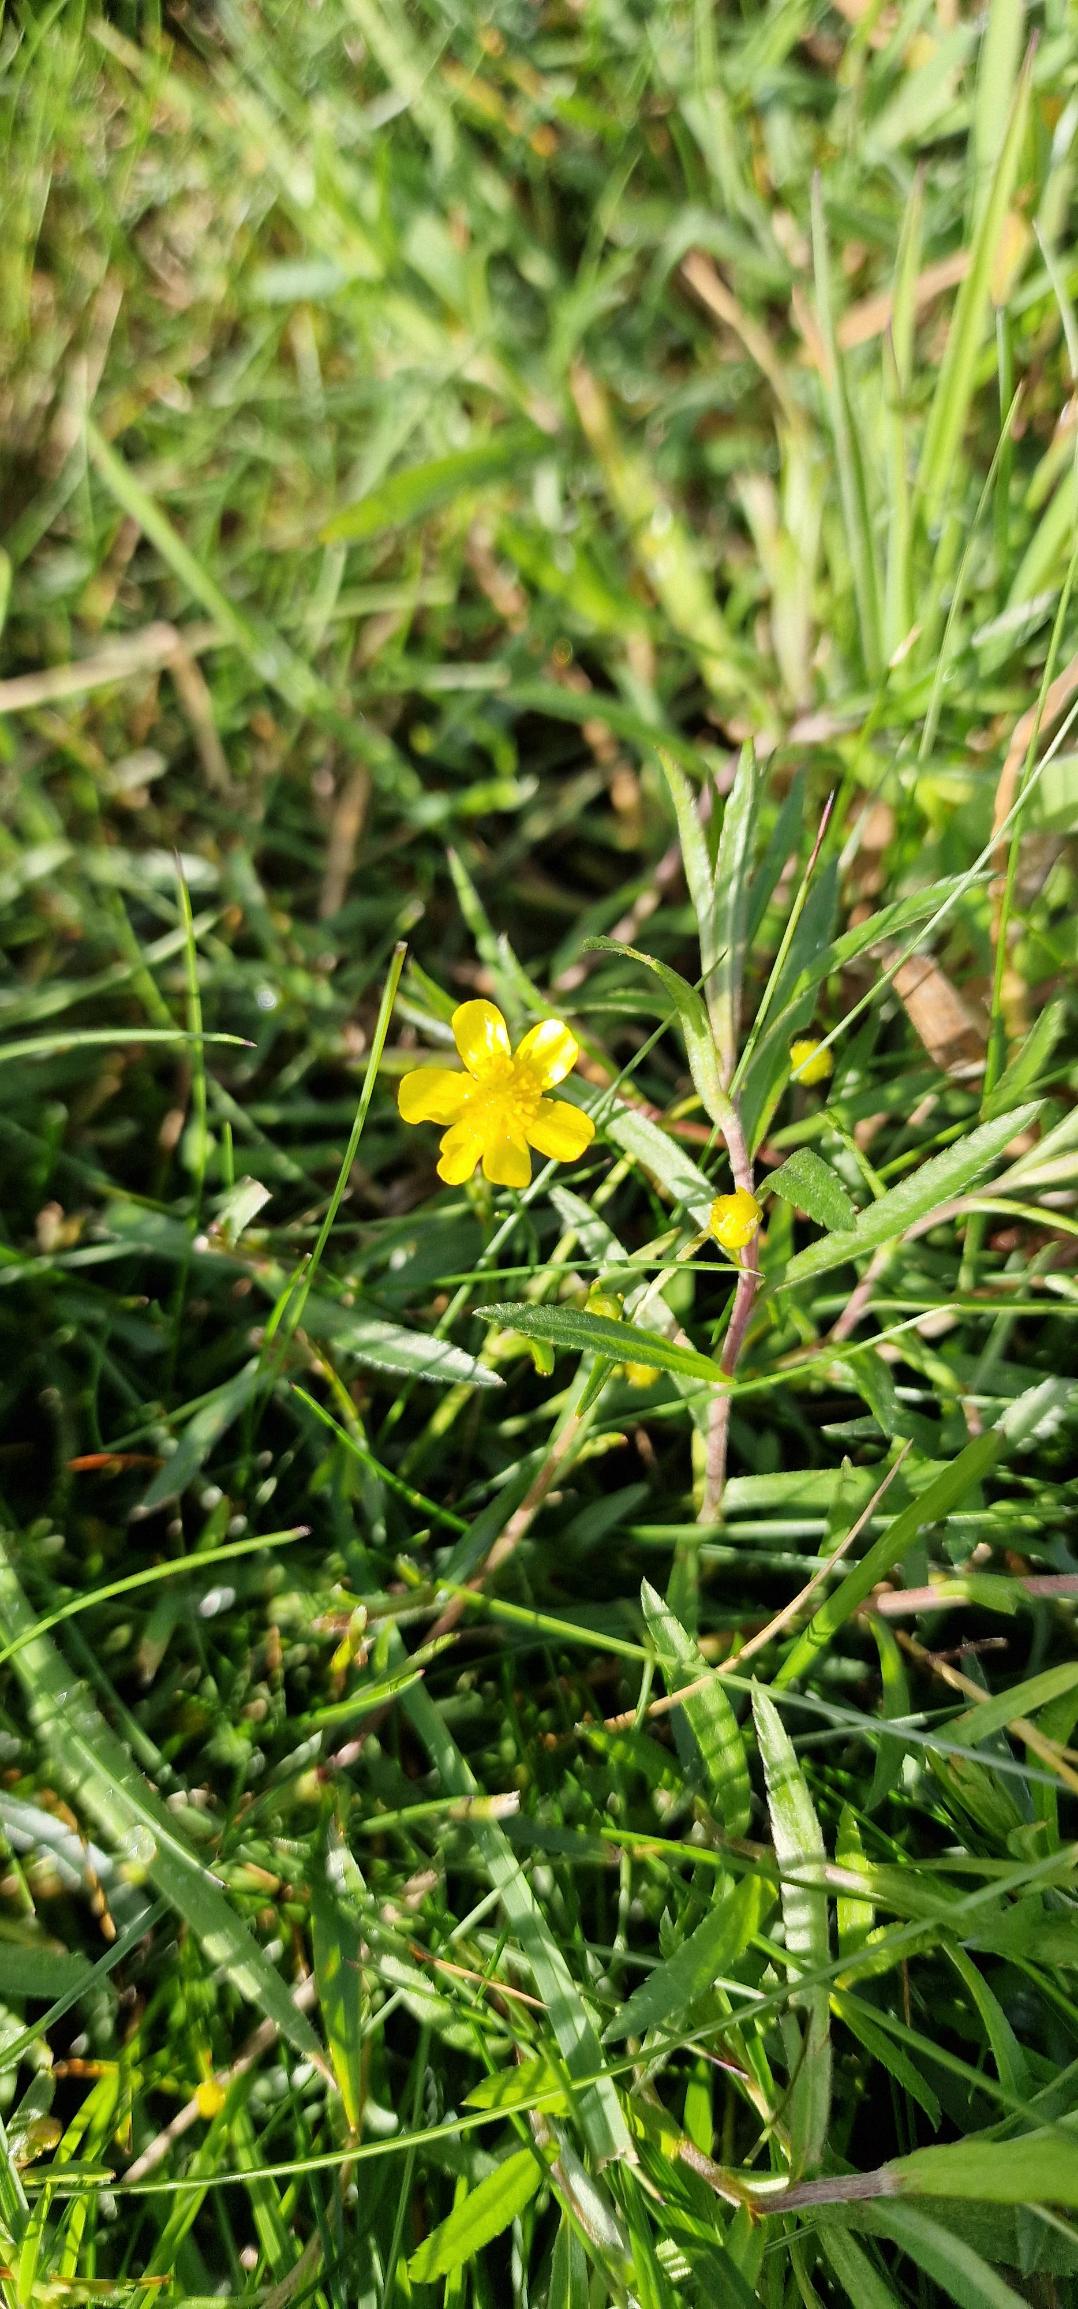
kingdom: Plantae
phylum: Tracheophyta
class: Magnoliopsida
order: Ranunculales
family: Ranunculaceae
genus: Ranunculus
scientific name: Ranunculus flammula
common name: Kær-ranunkel
